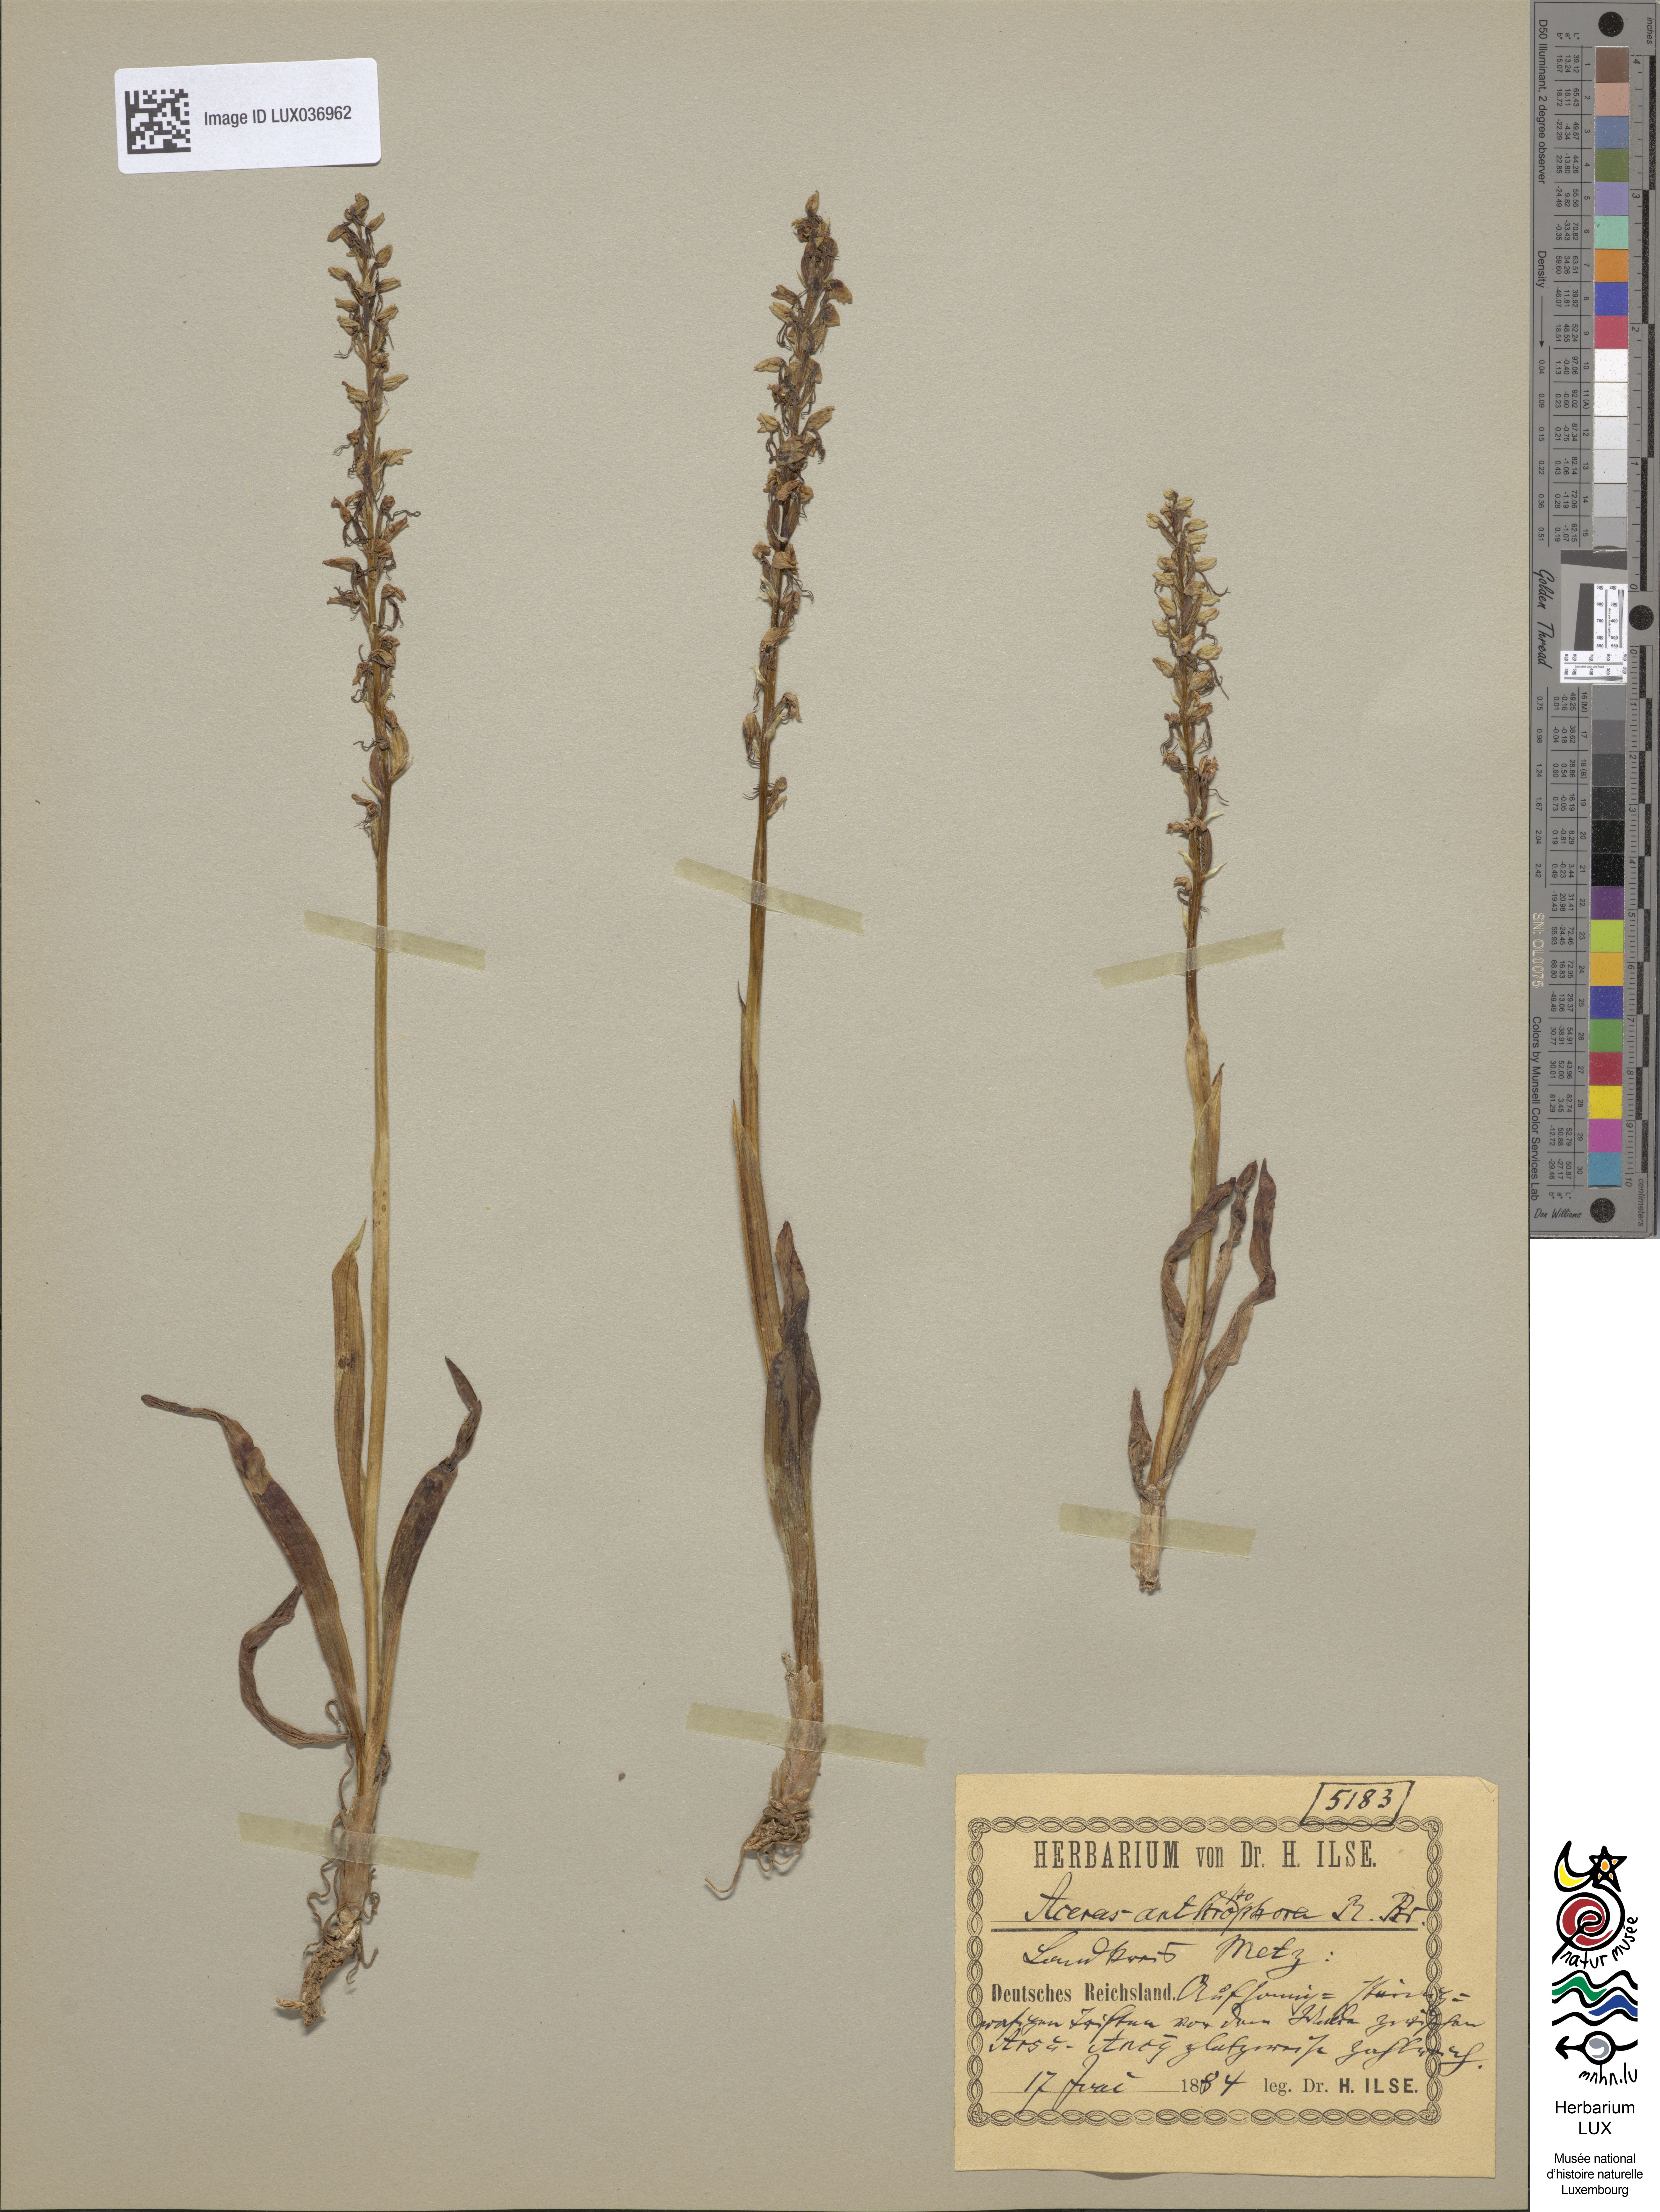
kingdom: Plantae
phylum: Tracheophyta
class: Liliopsida
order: Asparagales
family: Orchidaceae
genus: Orchis
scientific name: Orchis anthropophora
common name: Man orchid
